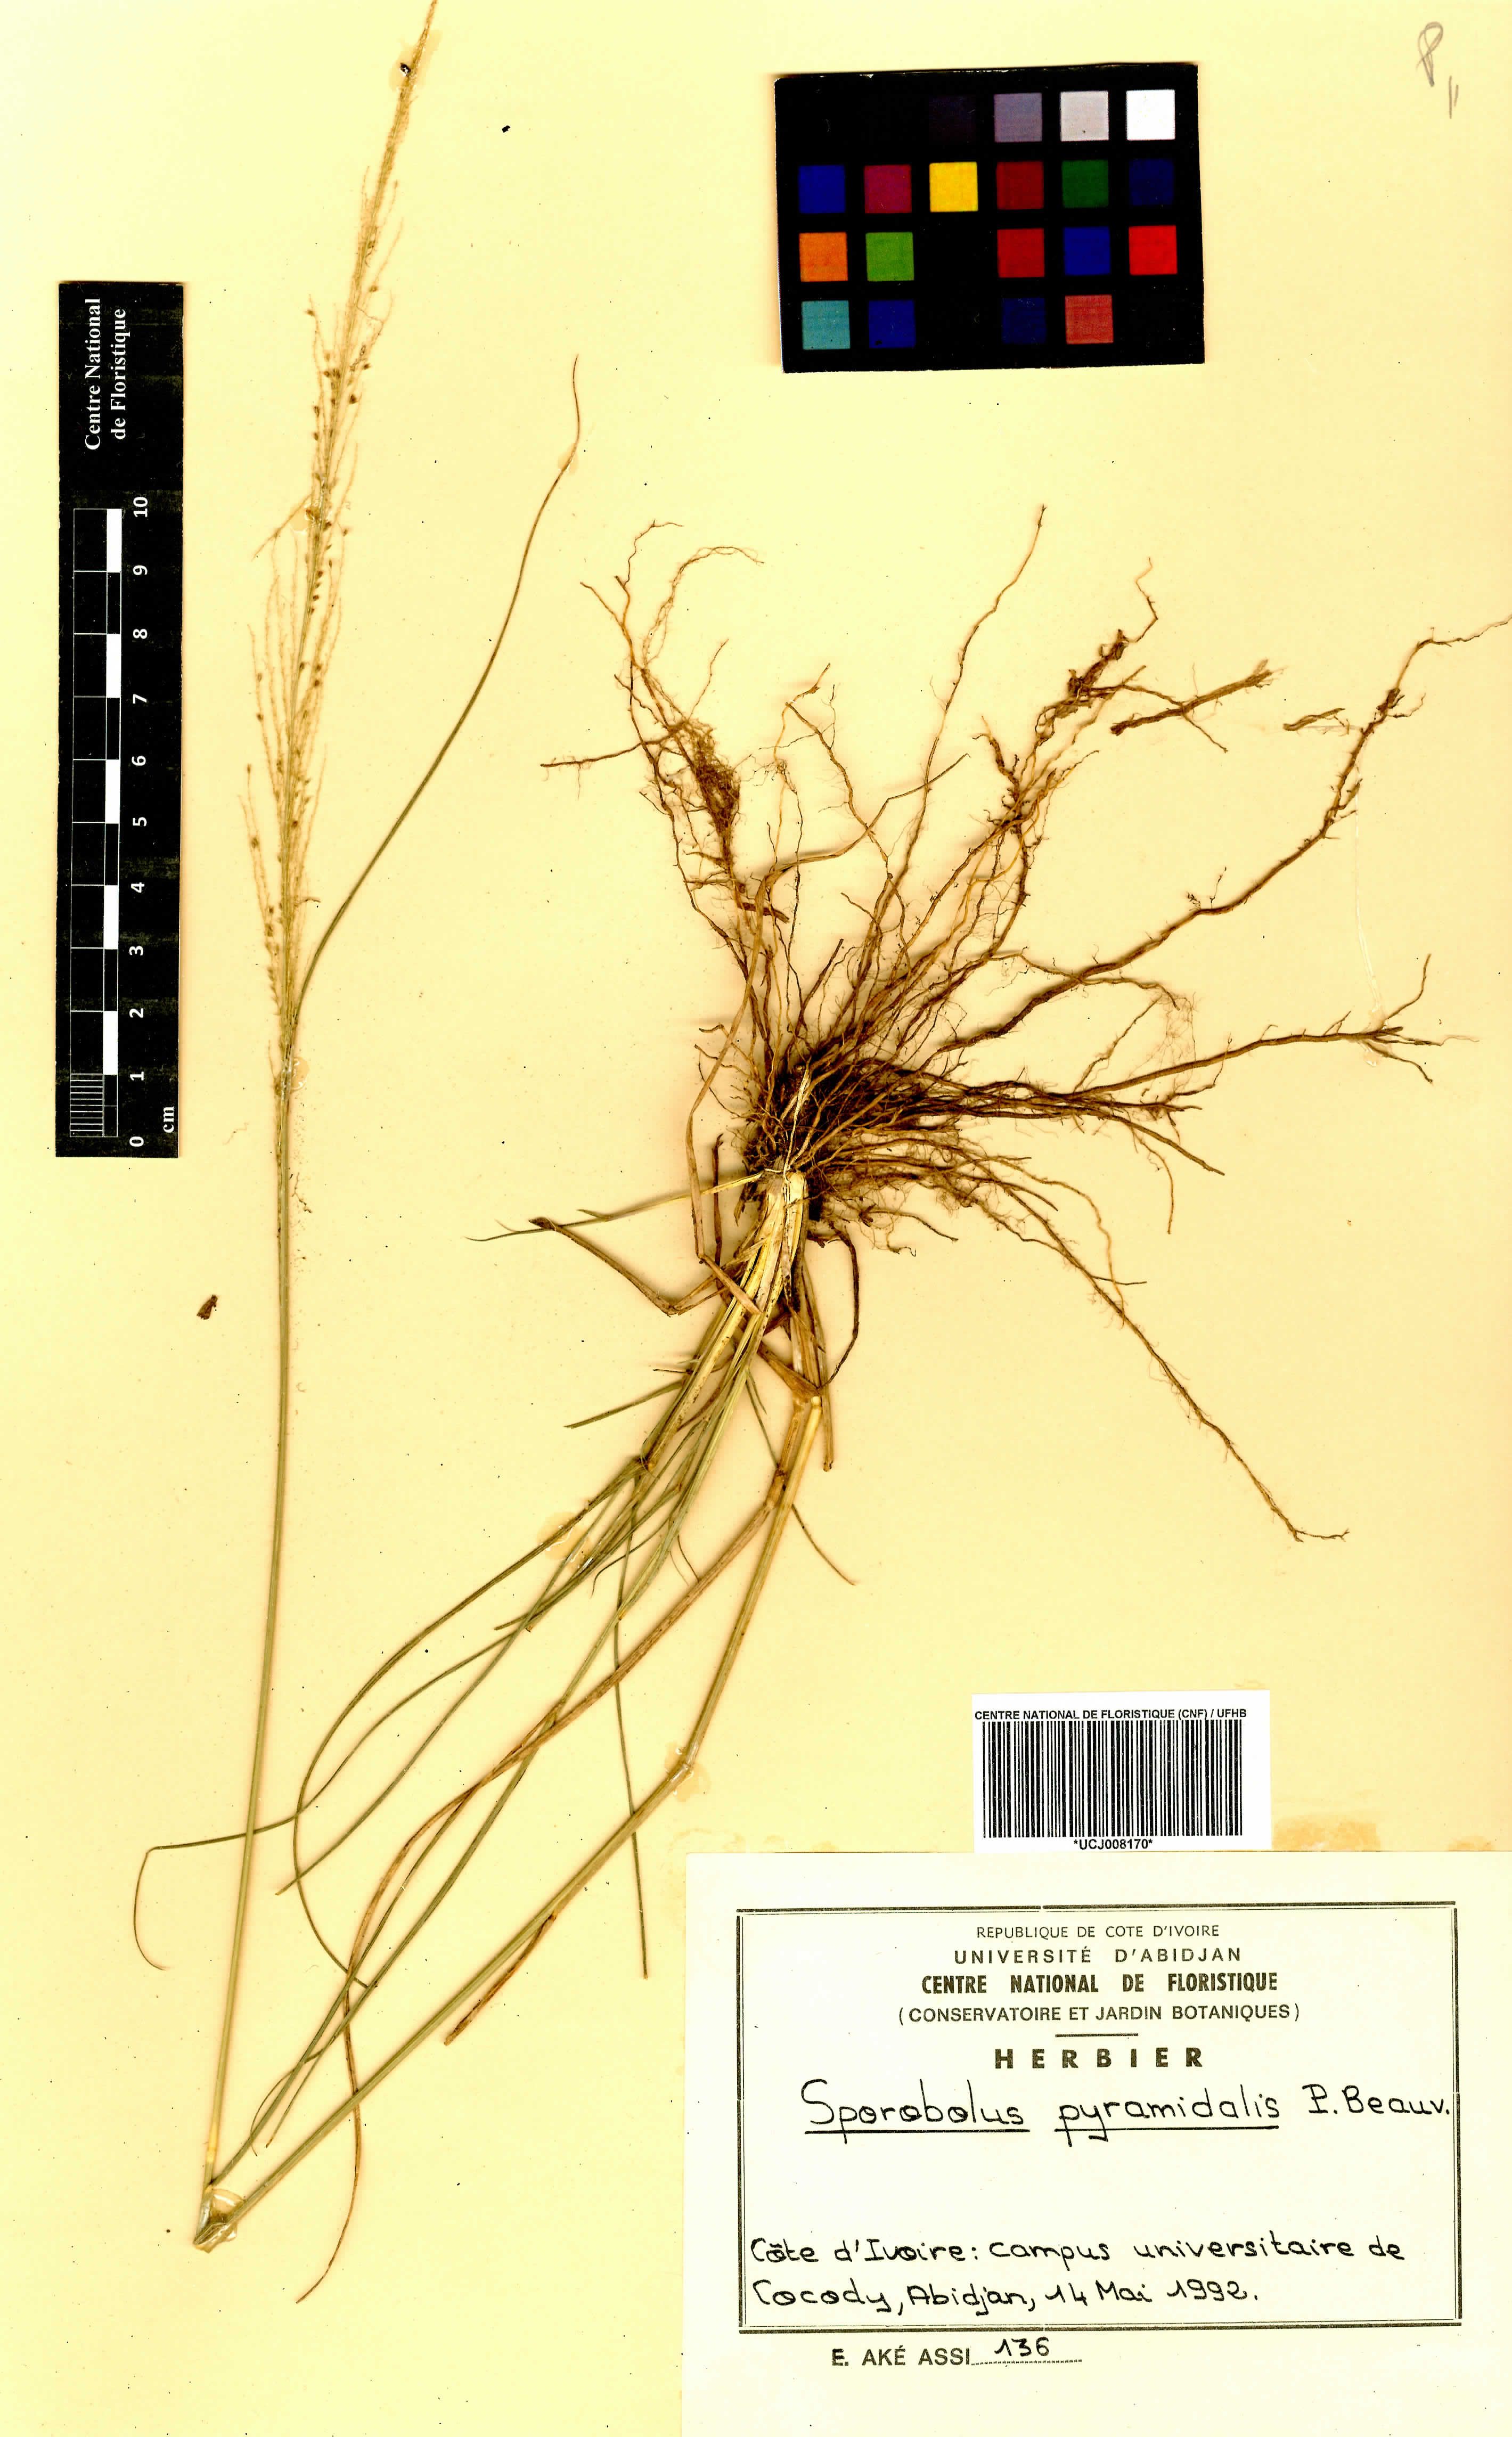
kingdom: Plantae
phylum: Tracheophyta
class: Liliopsida
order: Poales
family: Poaceae
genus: Sporobolus
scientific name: Sporobolus pyramidalis
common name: West indian dropseed
